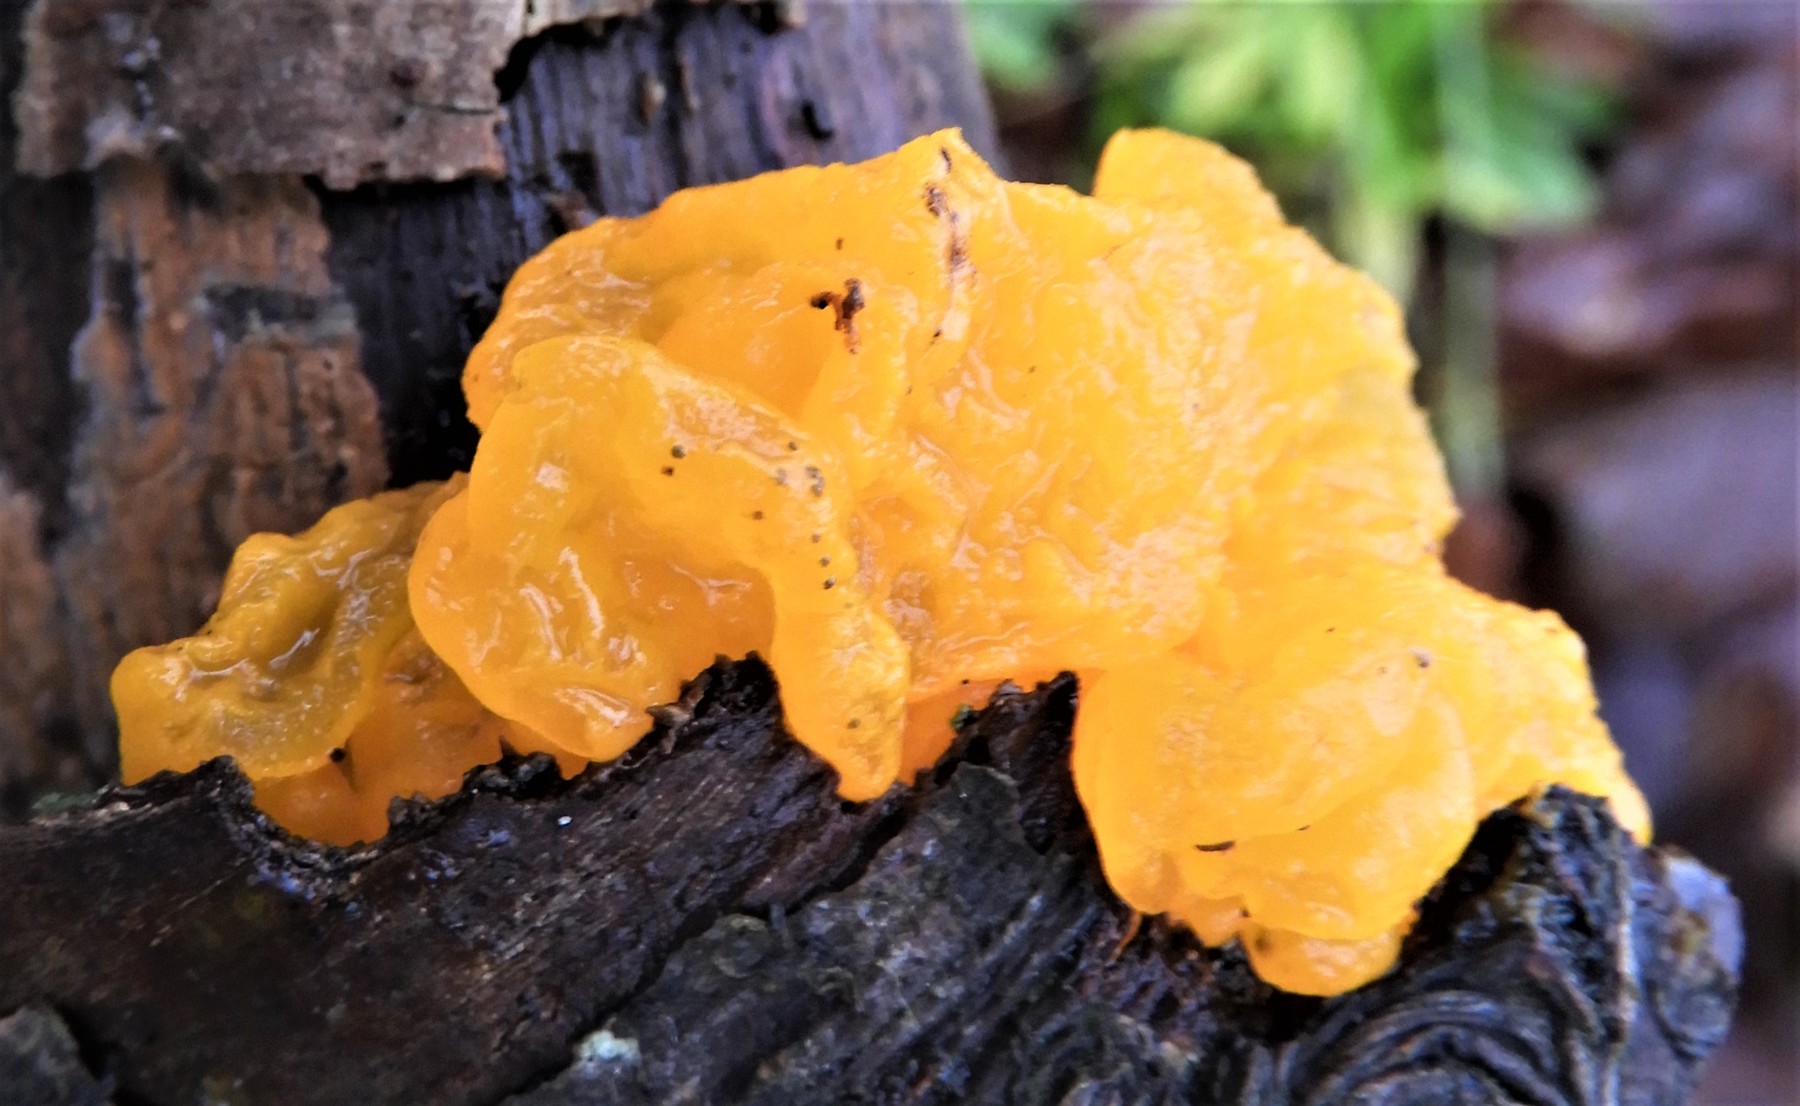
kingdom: Fungi
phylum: Basidiomycota
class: Tremellomycetes
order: Tremellales
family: Tremellaceae
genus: Tremella
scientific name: Tremella mesenterica
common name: gul bævresvamp
